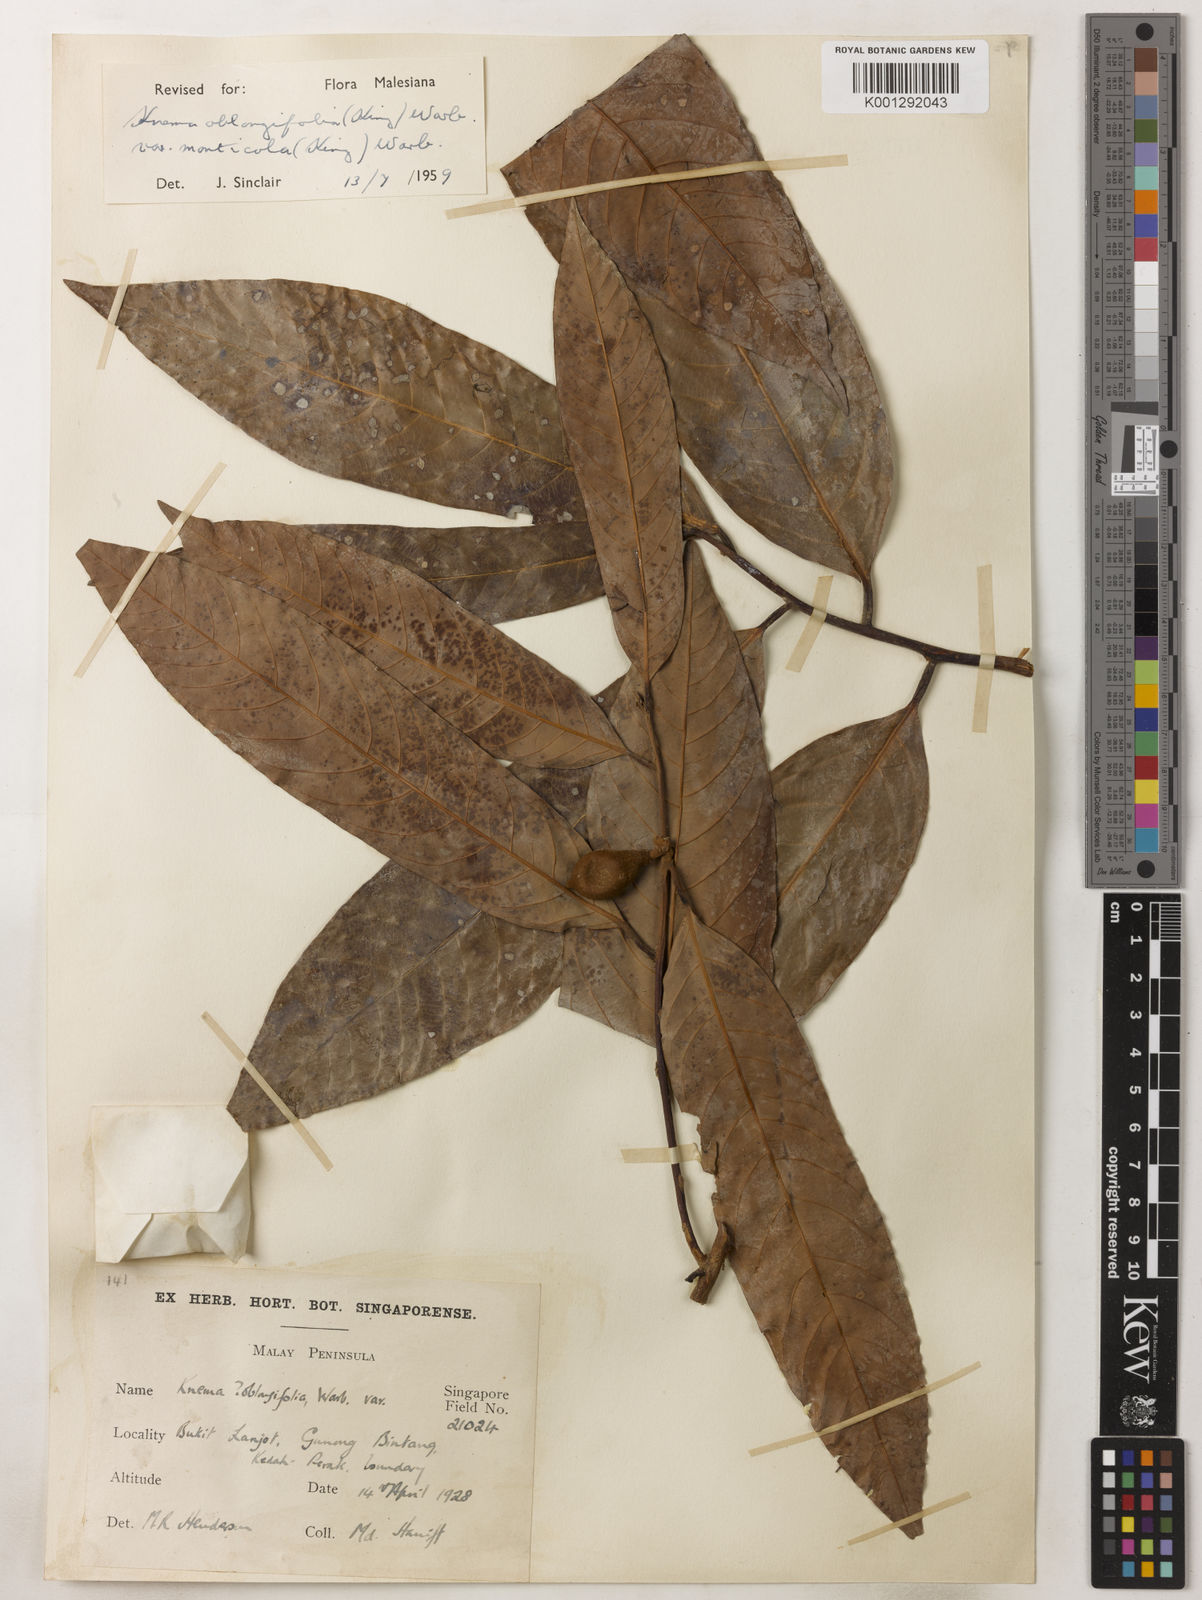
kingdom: Plantae
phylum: Tracheophyta
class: Magnoliopsida
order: Magnoliales
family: Myristicaceae
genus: Knema
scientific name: Knema
